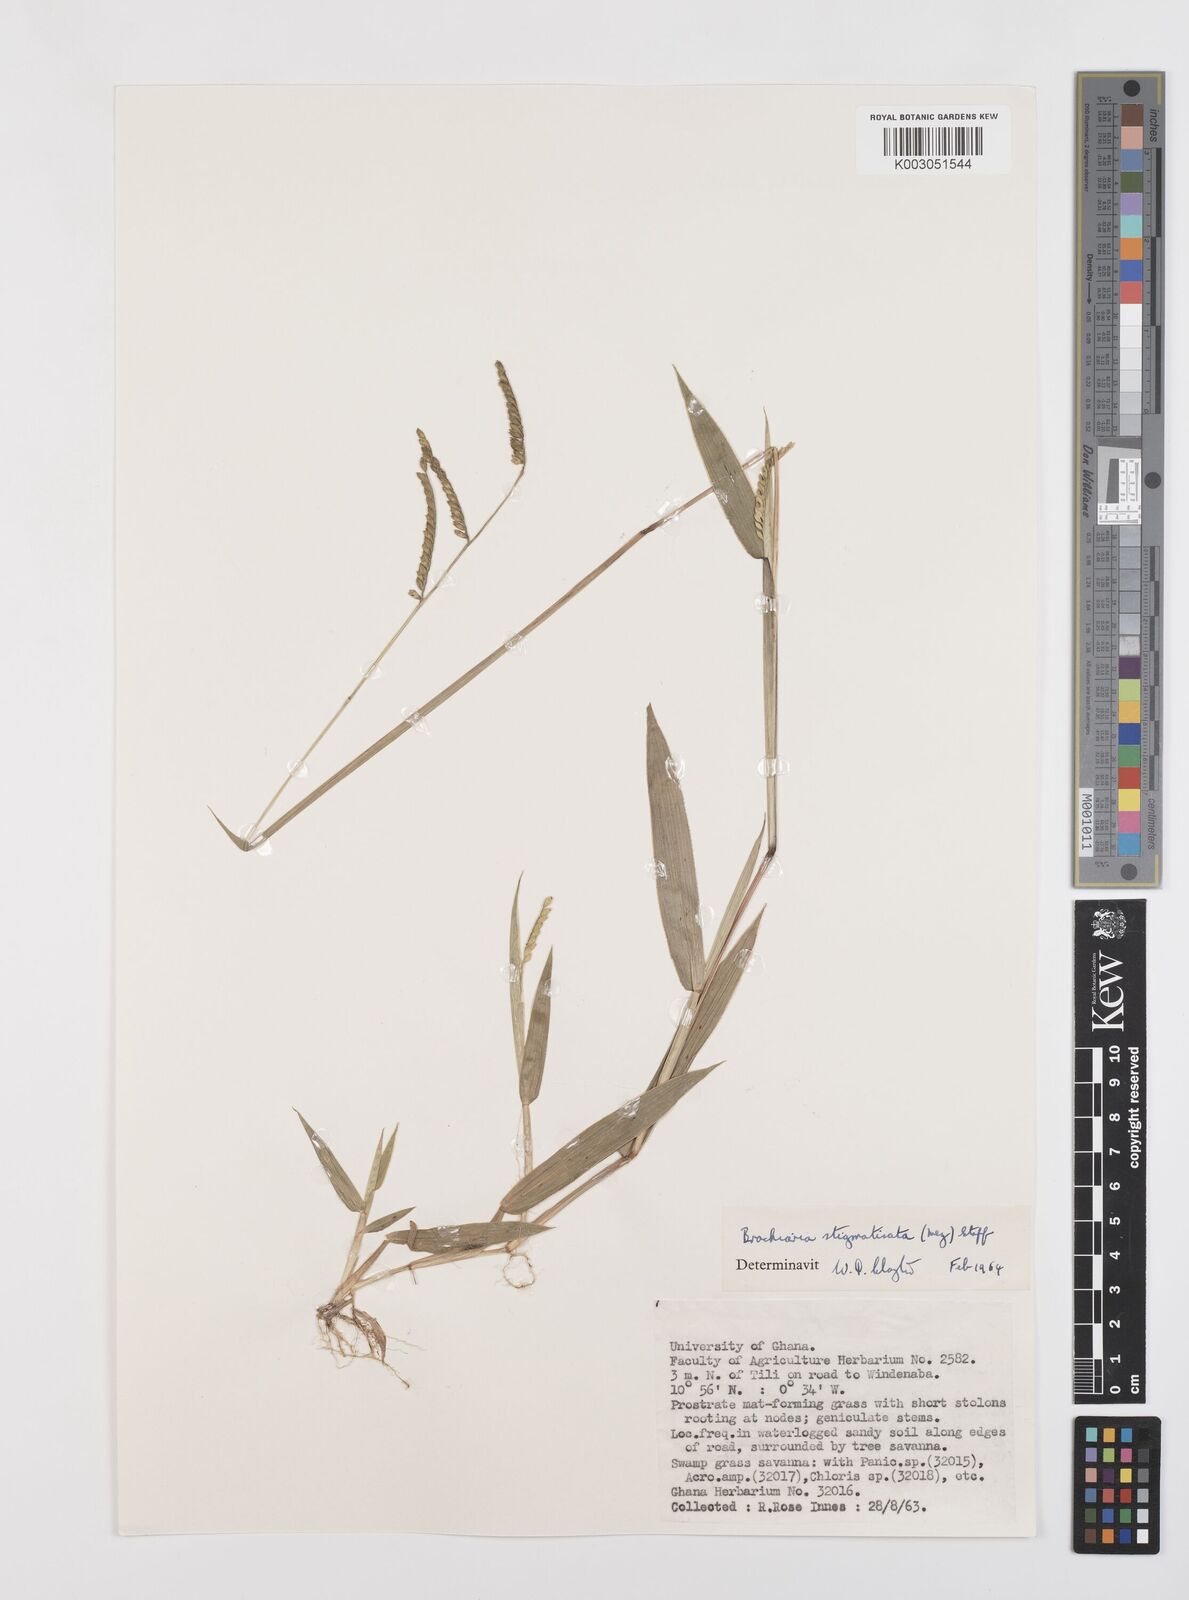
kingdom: Plantae
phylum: Tracheophyta
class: Liliopsida
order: Poales
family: Poaceae
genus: Urochloa
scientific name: Urochloa stigmatisata
